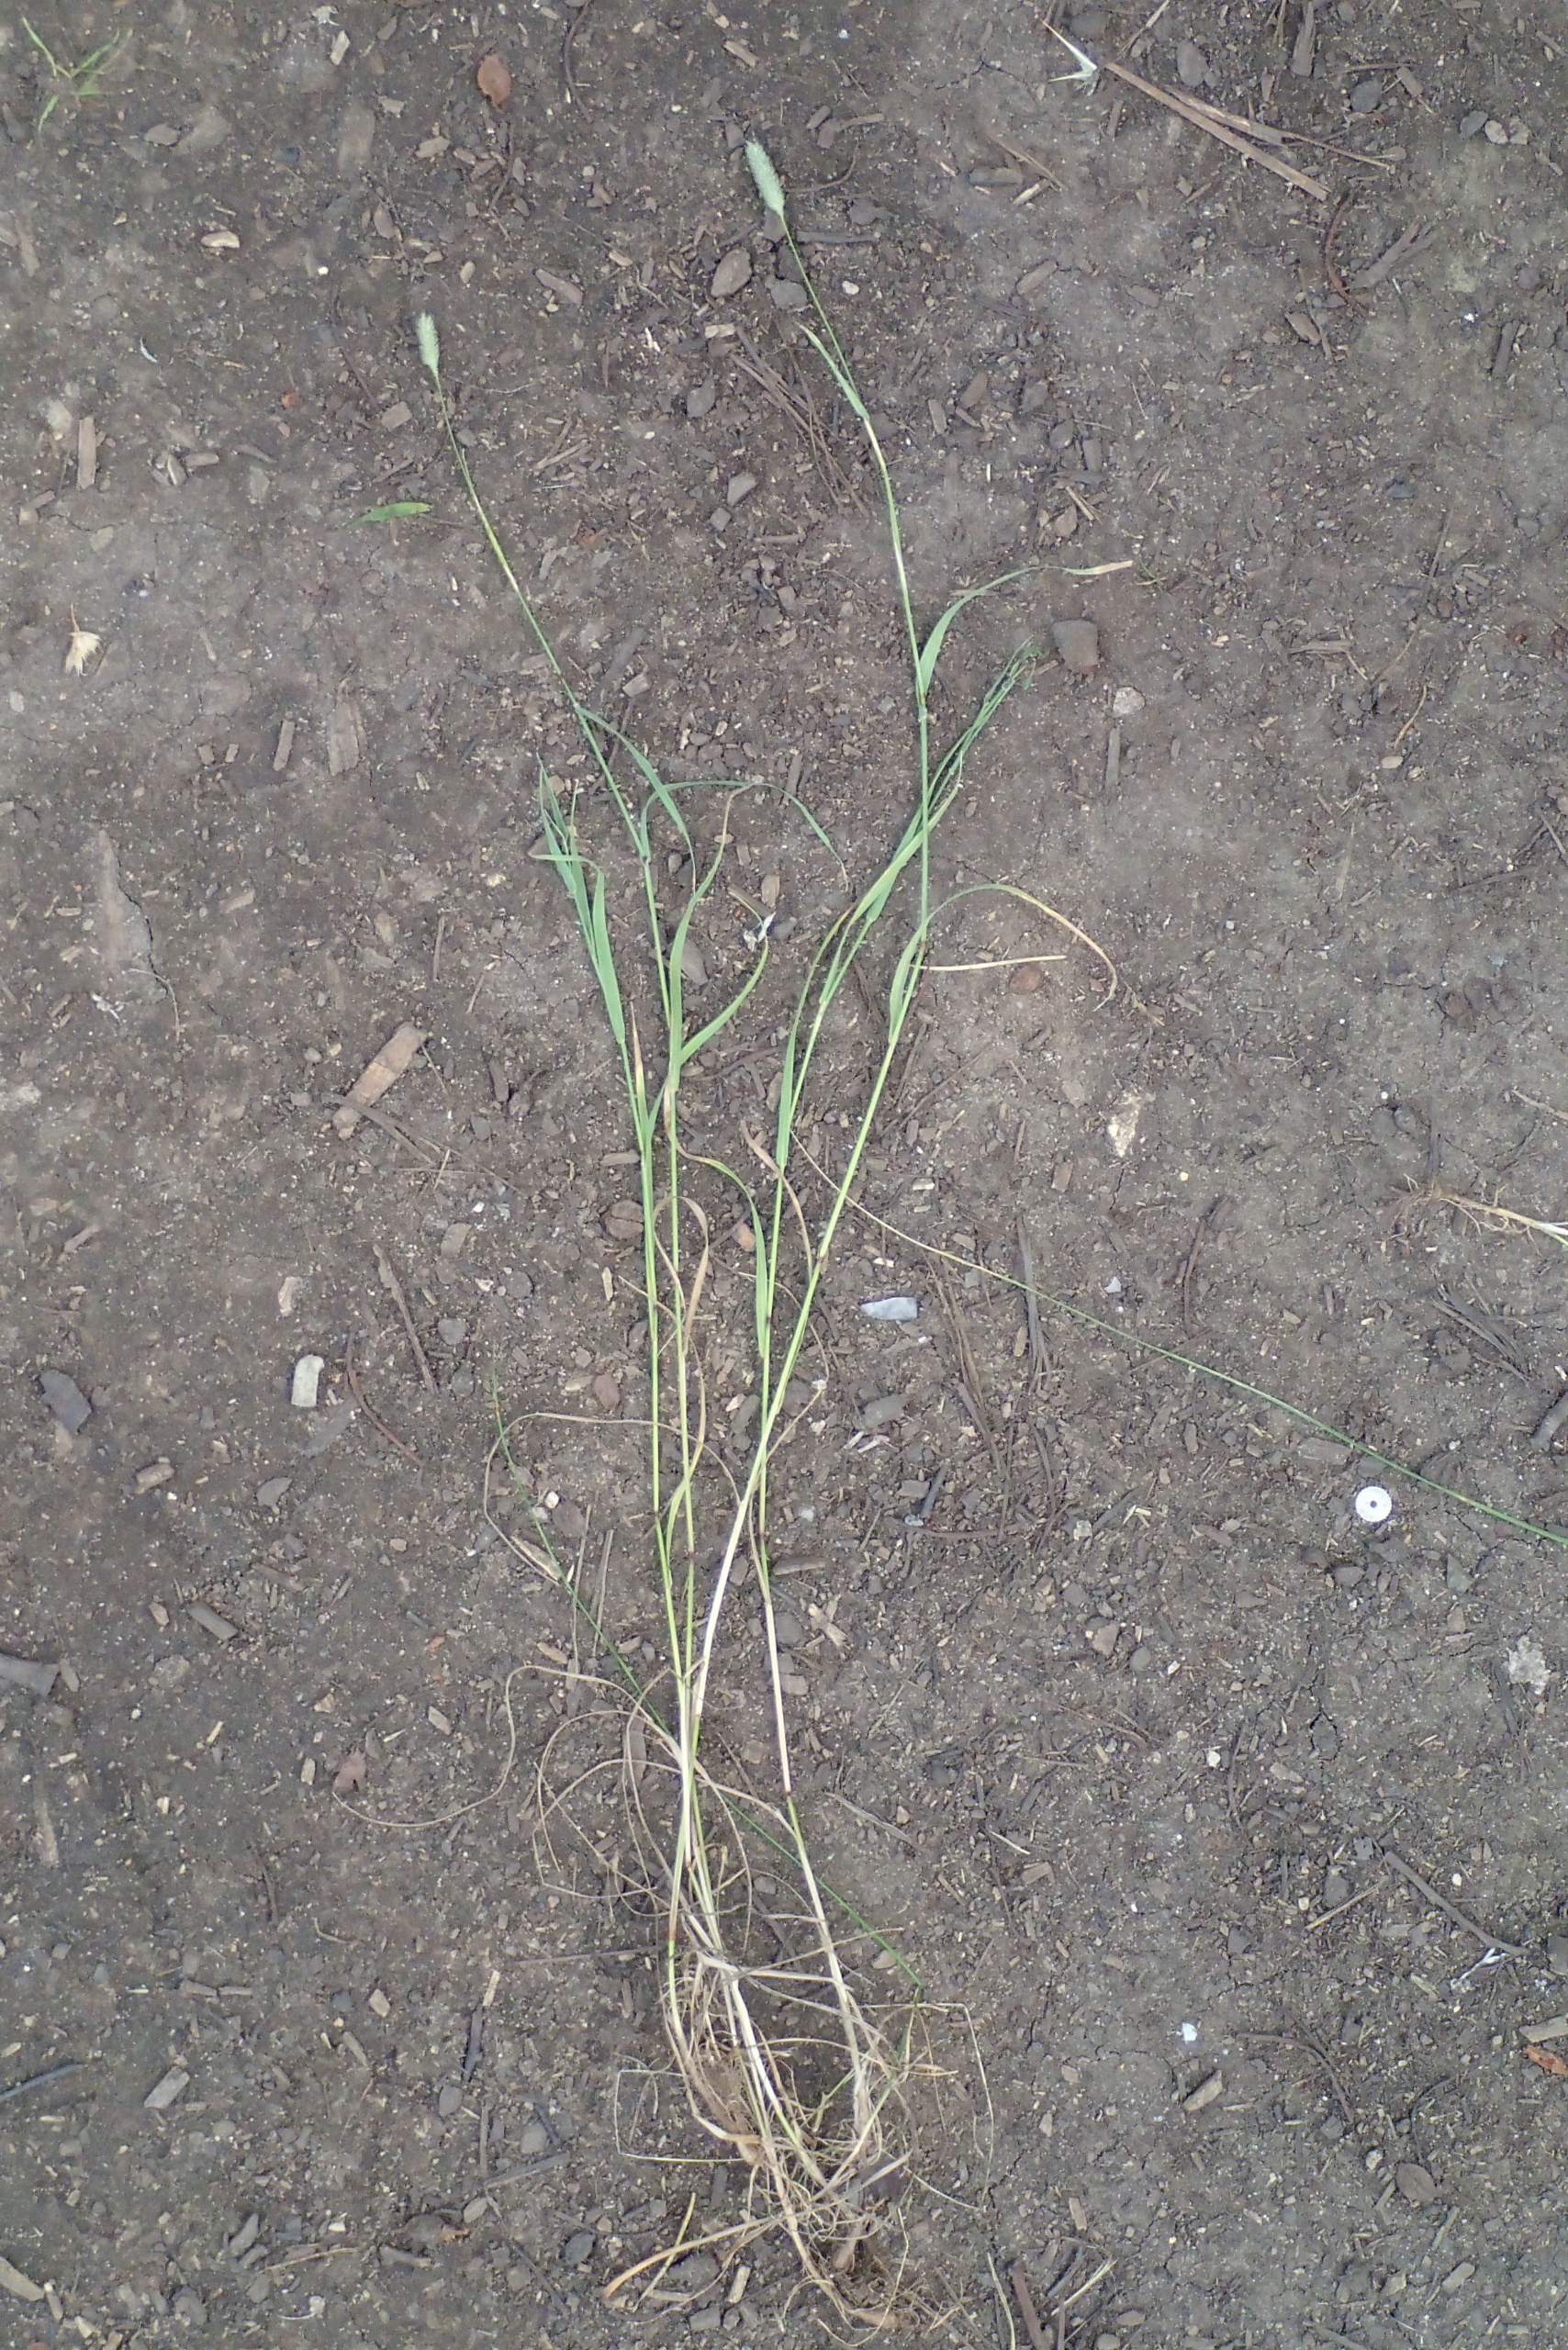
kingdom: Plantae
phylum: Tracheophyta
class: Liliopsida
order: Poales
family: Poaceae
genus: Phleum
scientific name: Phleum pratense
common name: Knold-rottehale
